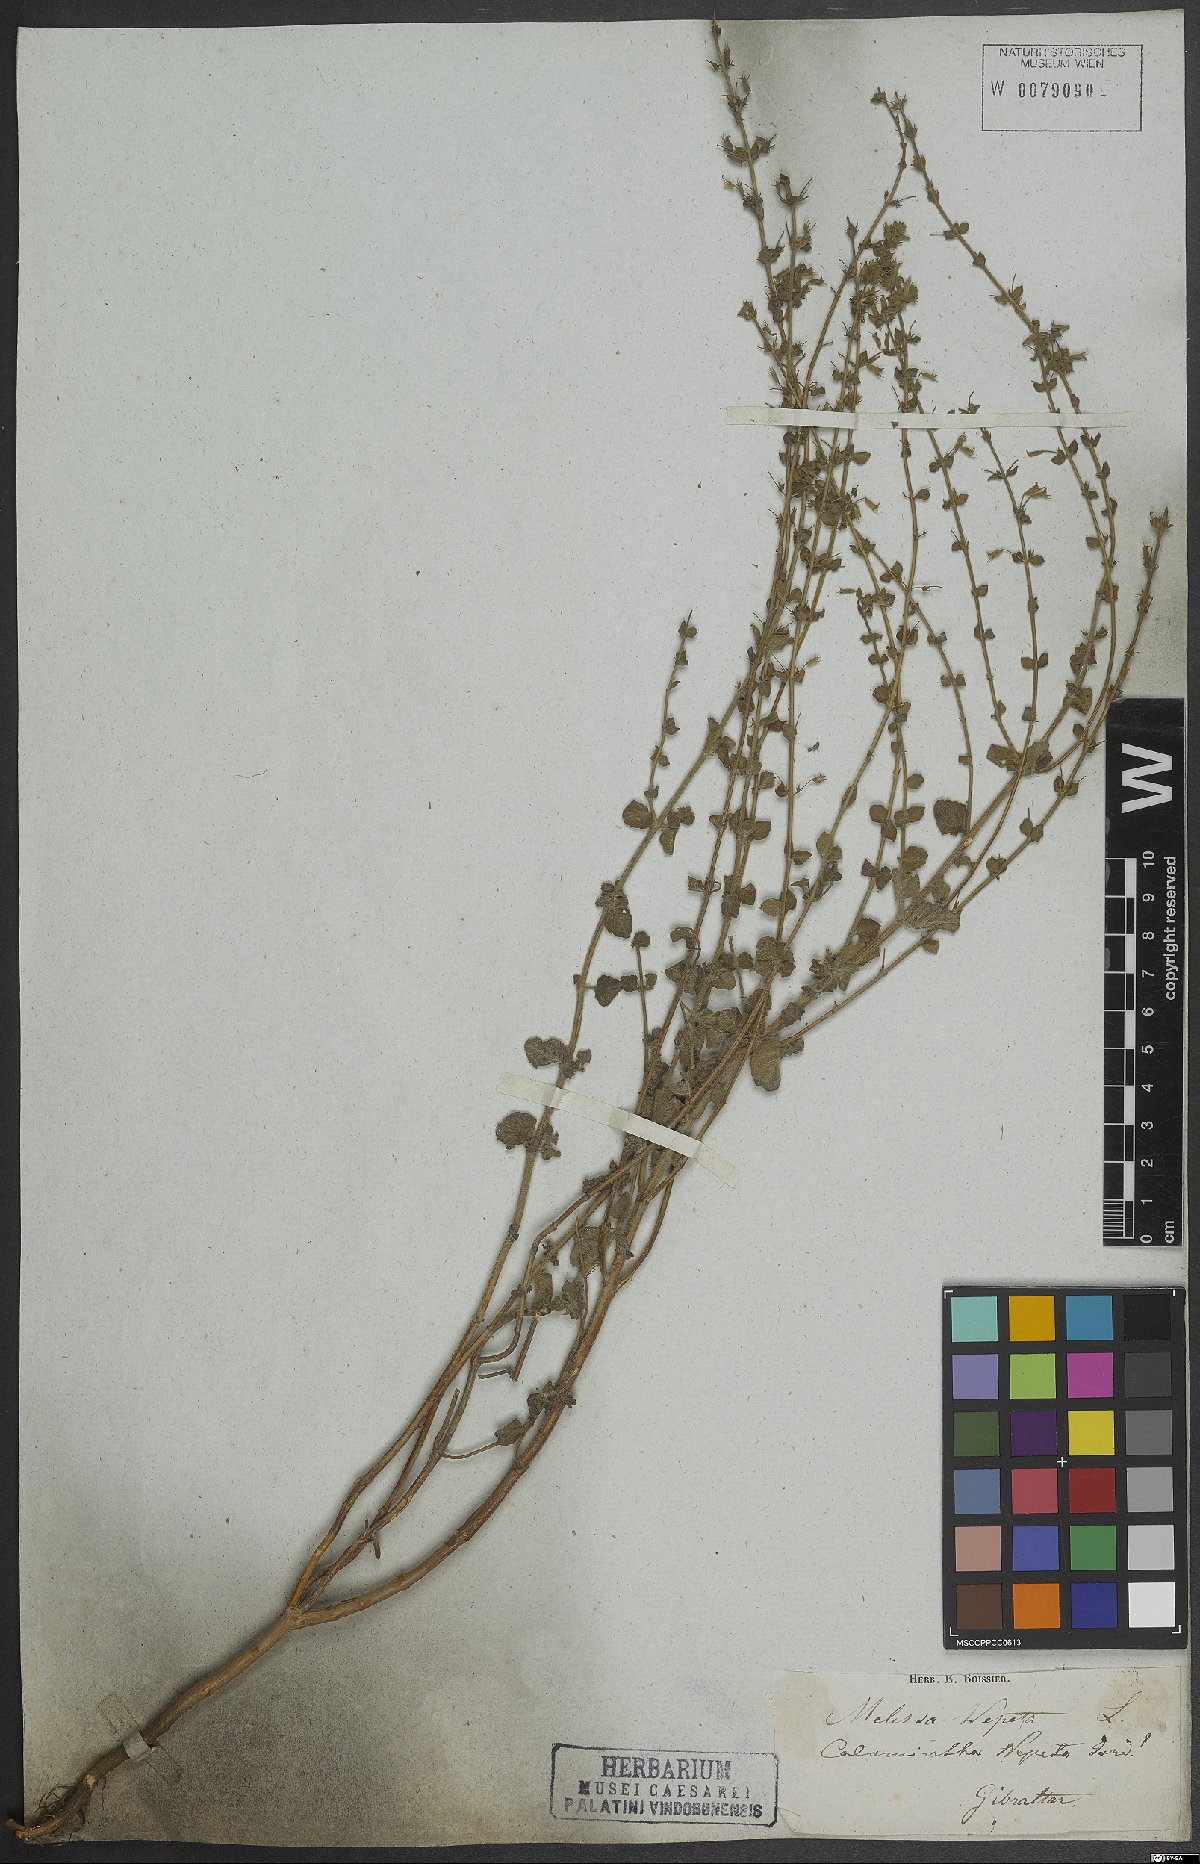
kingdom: Plantae
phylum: Tracheophyta
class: Magnoliopsida
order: Lamiales
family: Lamiaceae
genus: Clinopodium
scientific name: Clinopodium nepeta
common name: Lesser calamint
